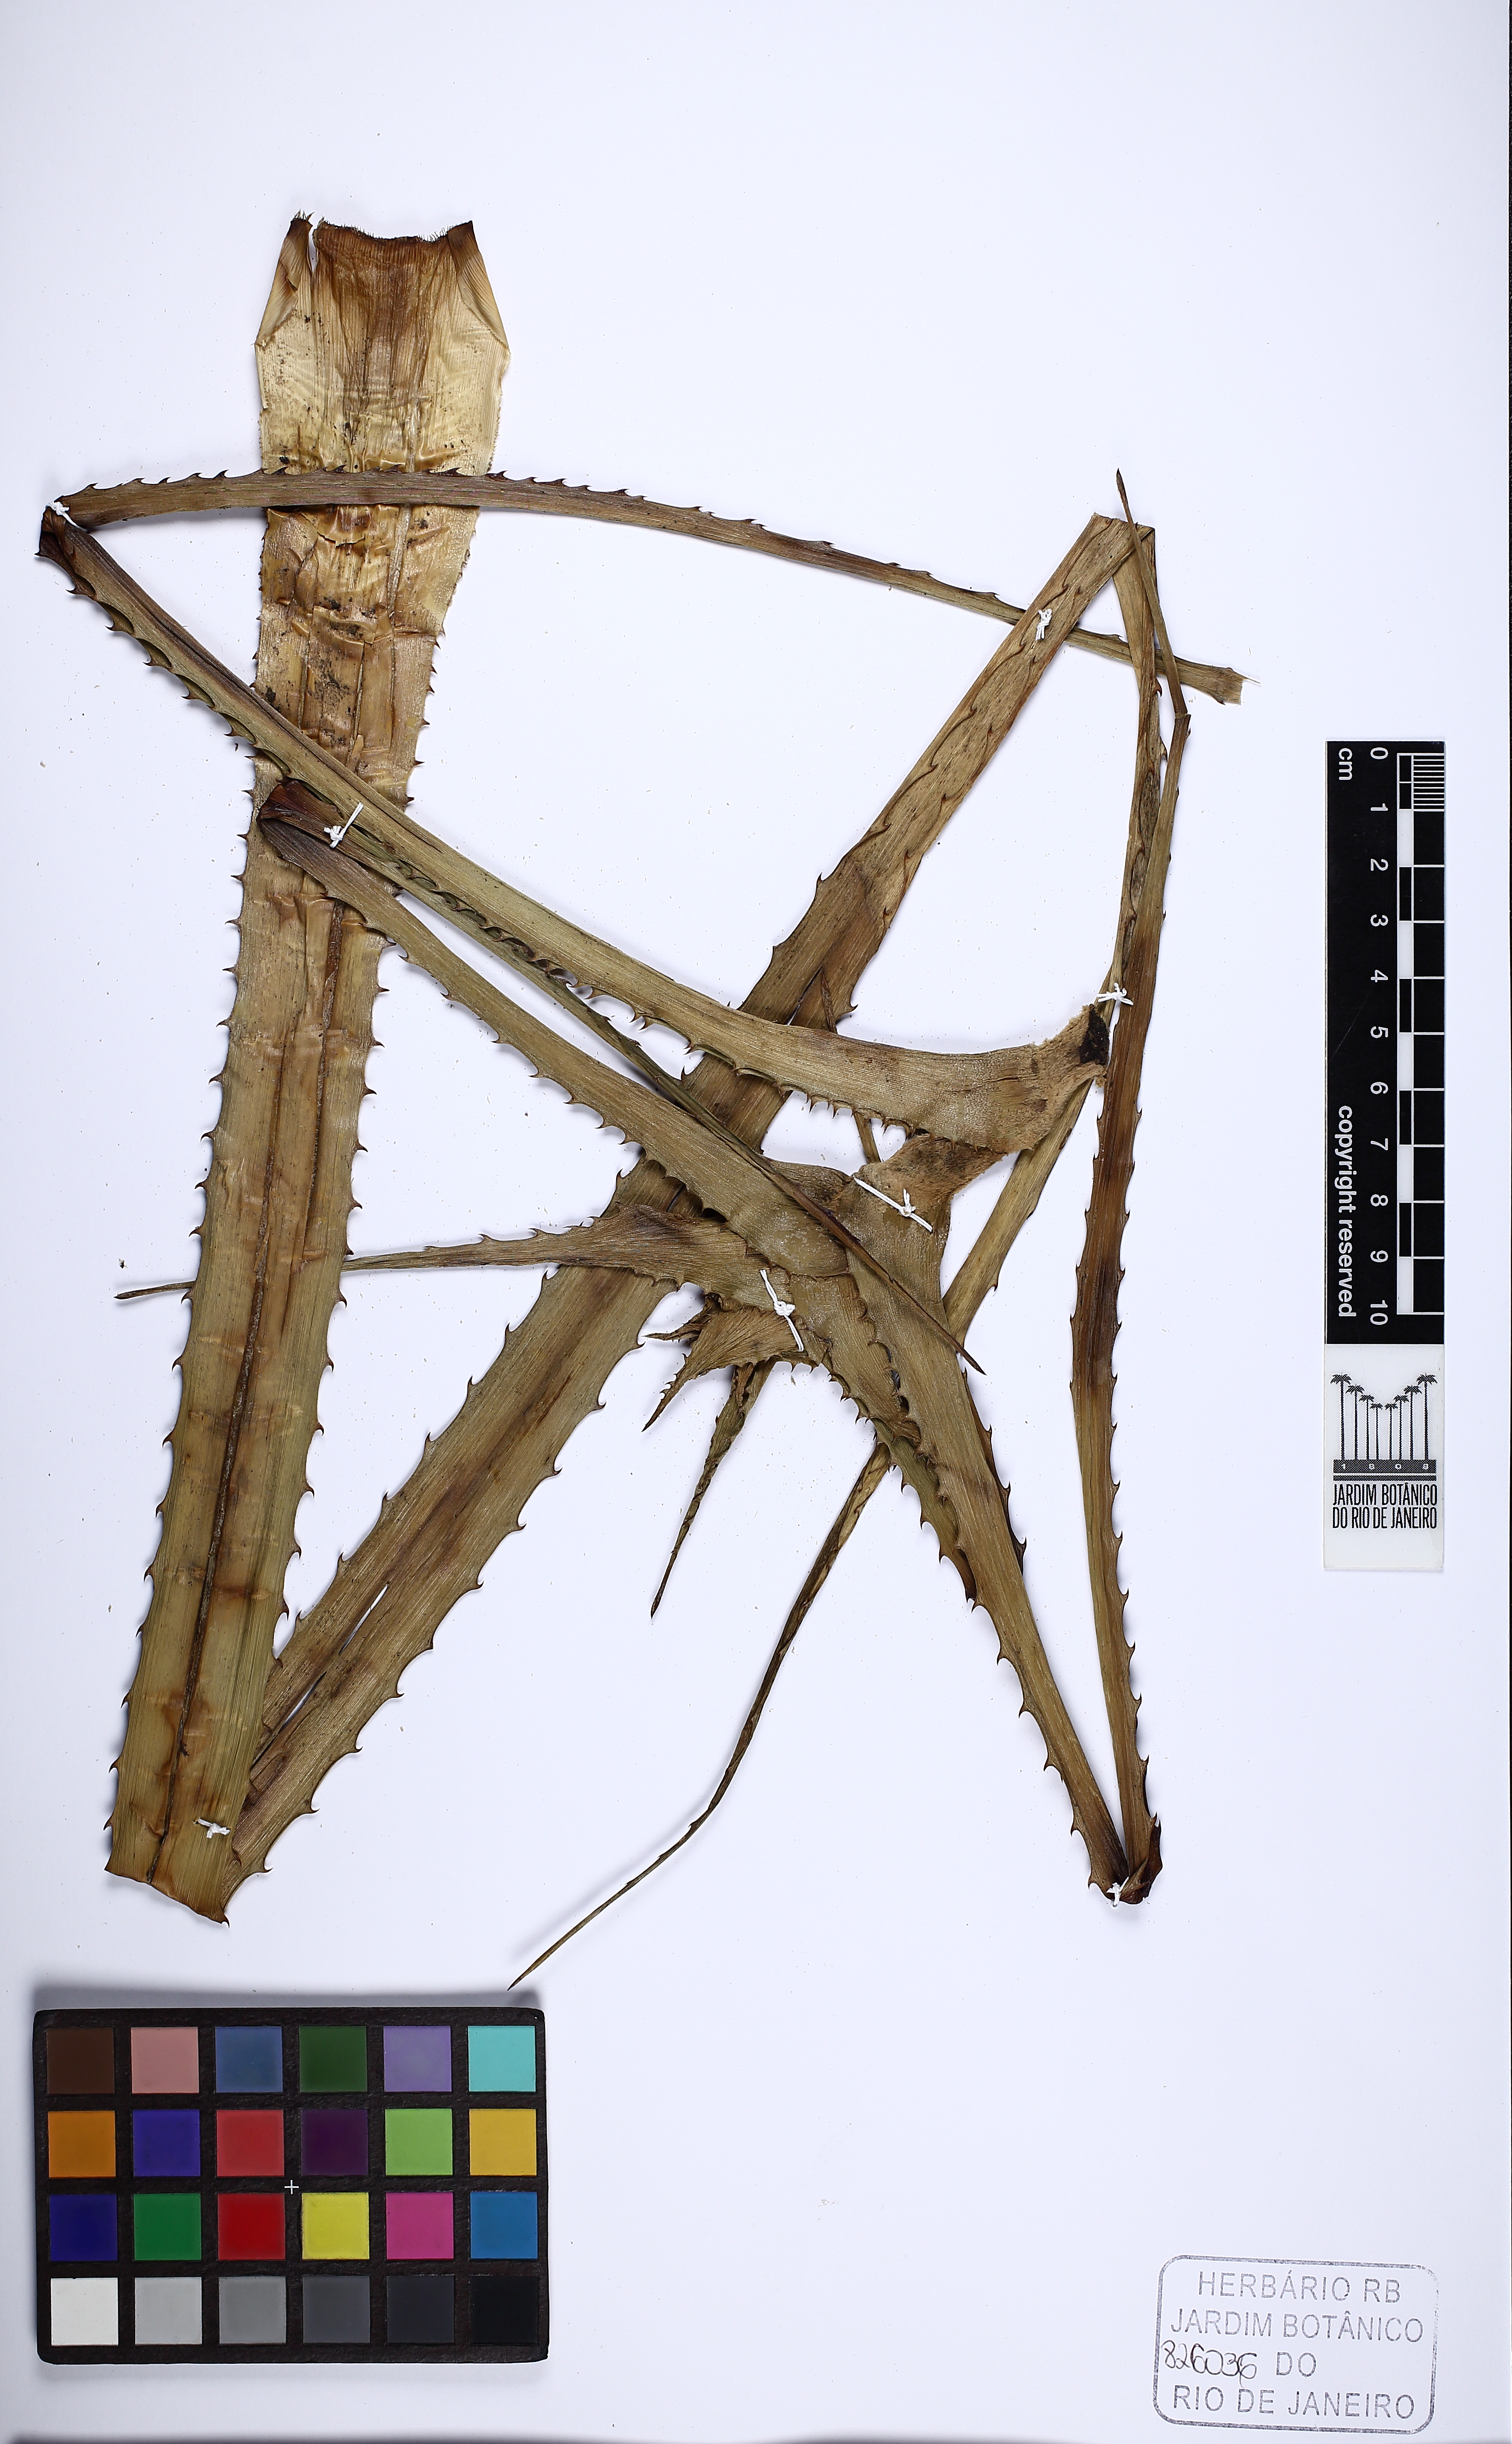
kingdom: Plantae
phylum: Tracheophyta
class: Liliopsida
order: Poales
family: Bromeliaceae
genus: Orthophytum
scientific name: Orthophytum foliosum
